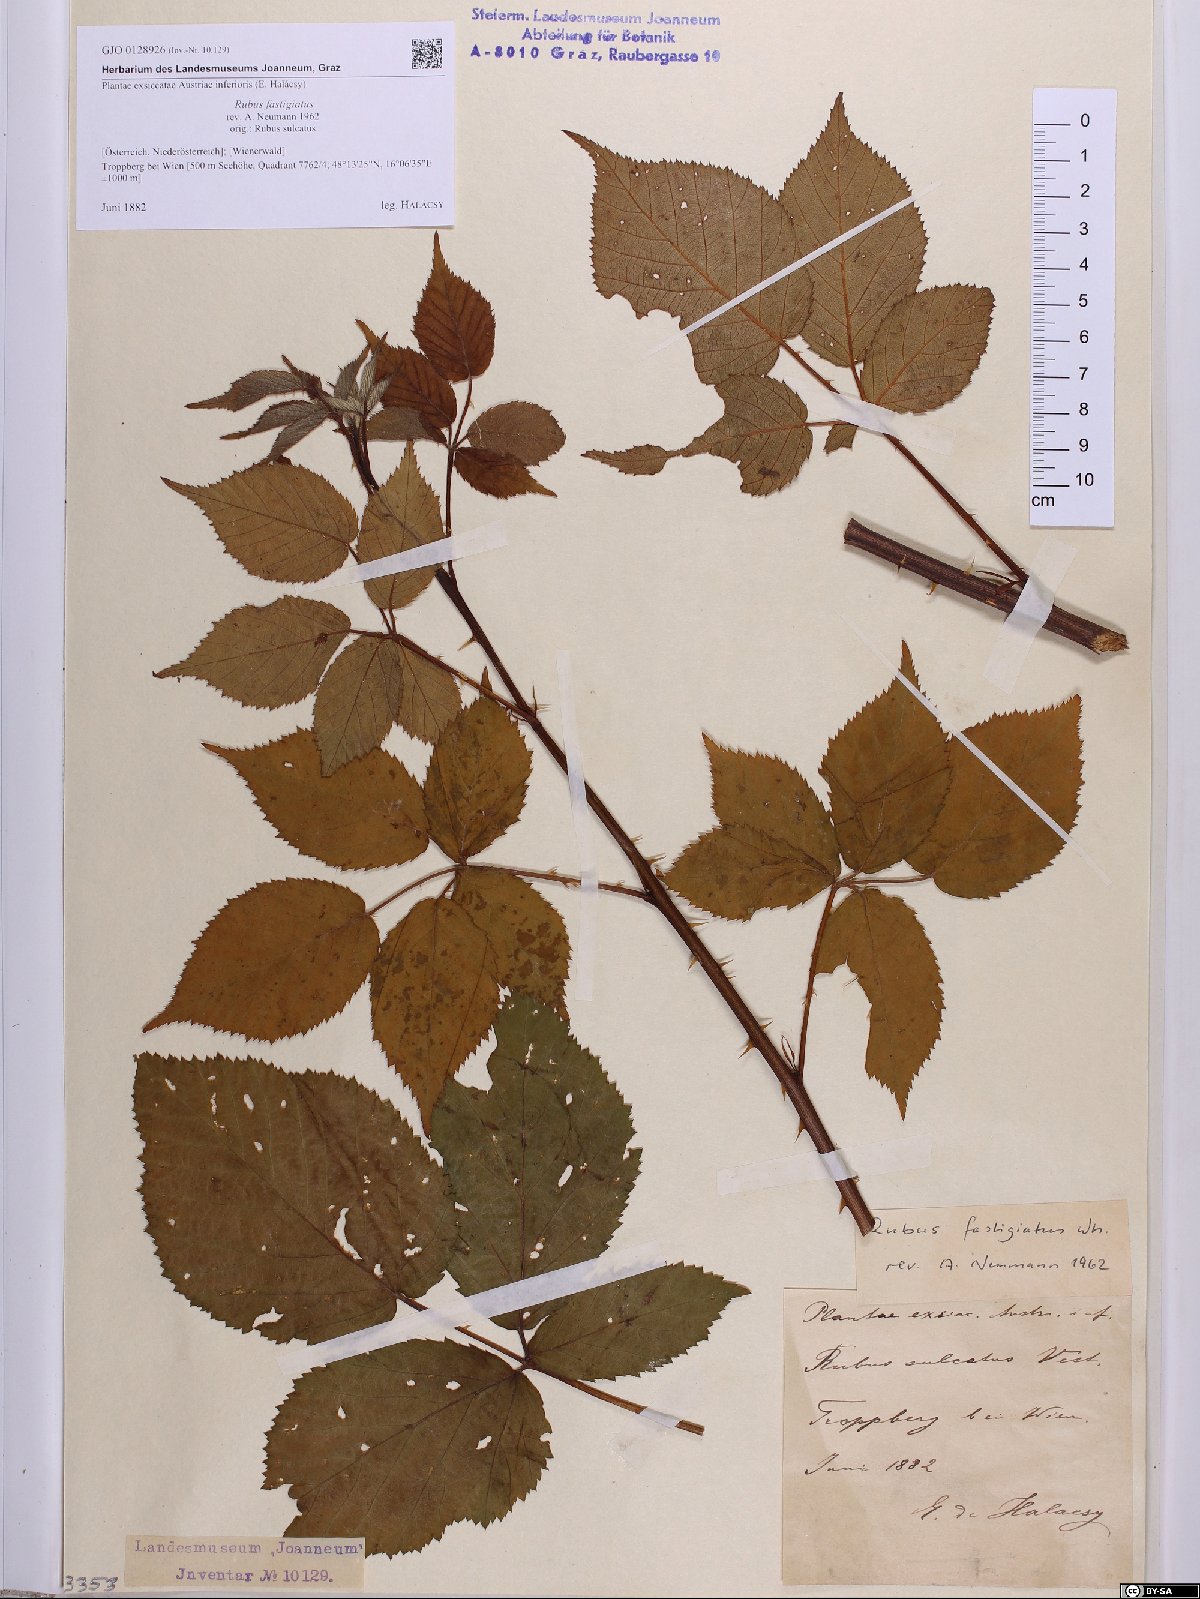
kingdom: Plantae
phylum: Tracheophyta
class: Magnoliopsida
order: Rosales
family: Rosaceae
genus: Rubus
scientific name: Rubus polonicus
